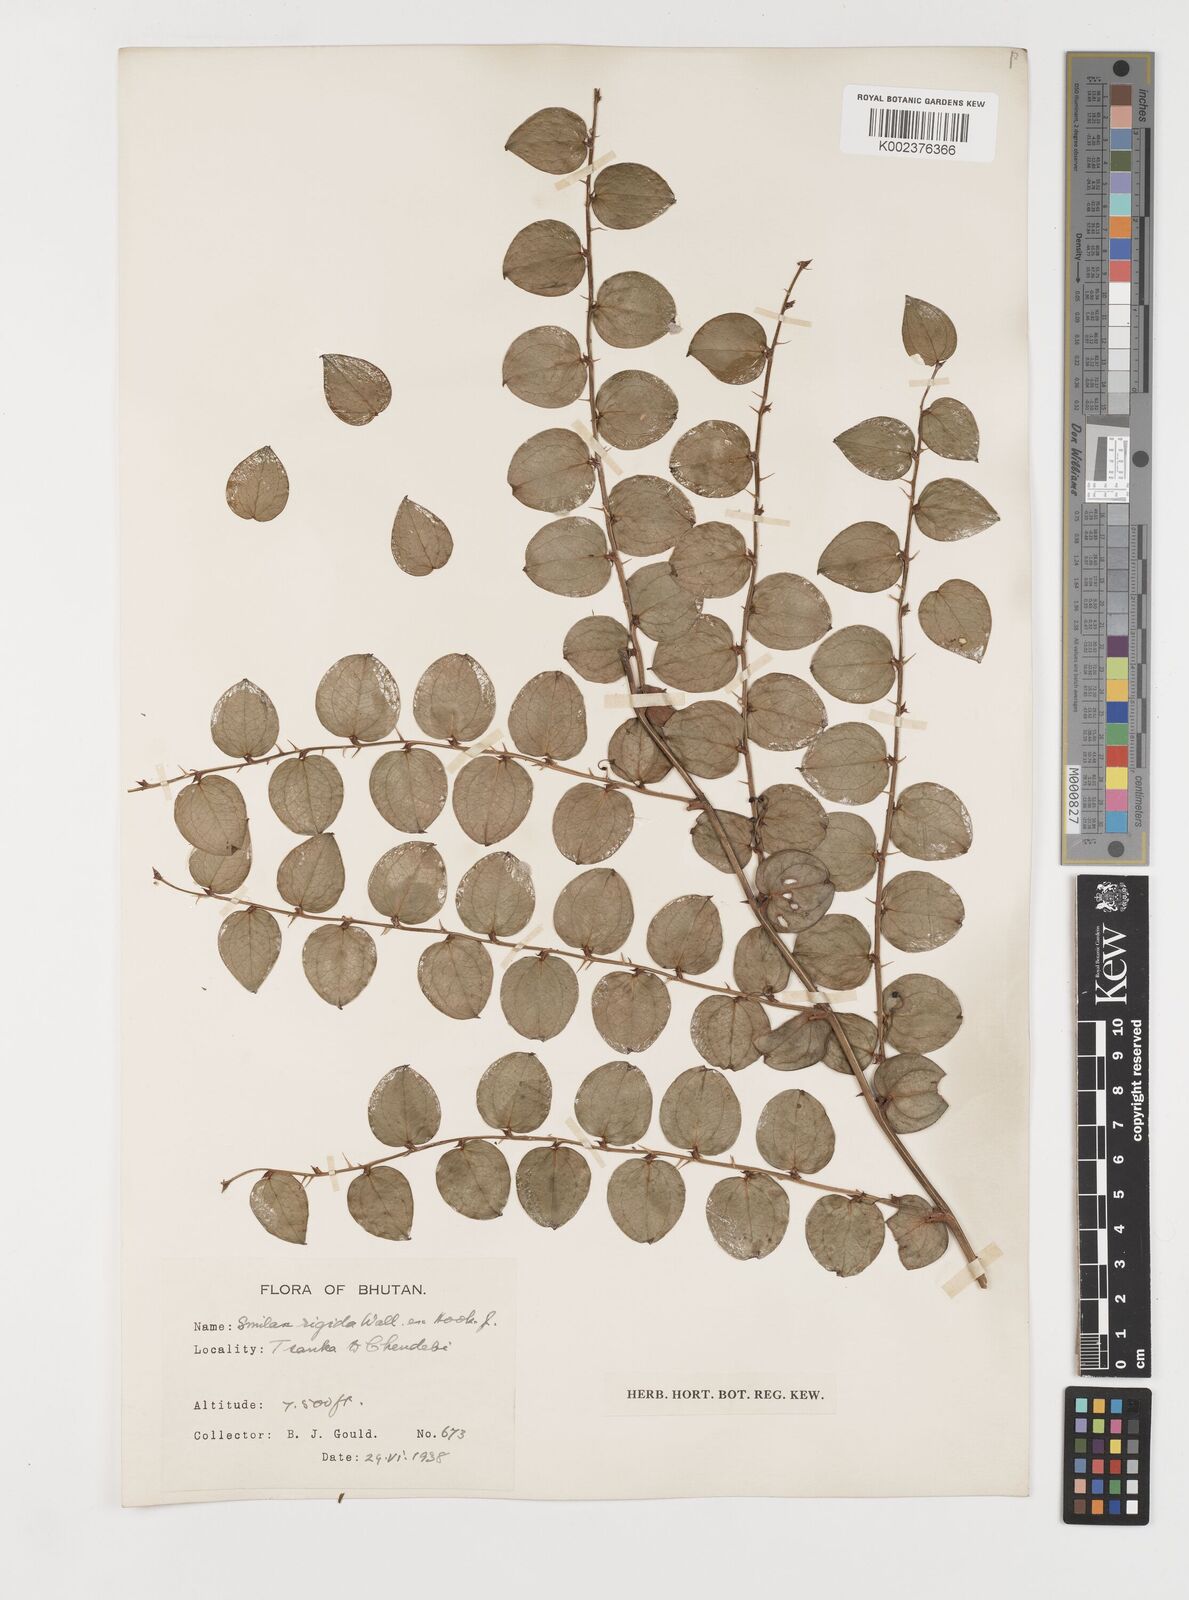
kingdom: Plantae
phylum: Tracheophyta
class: Liliopsida
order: Liliales
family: Smilacaceae
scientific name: Smilacaceae
